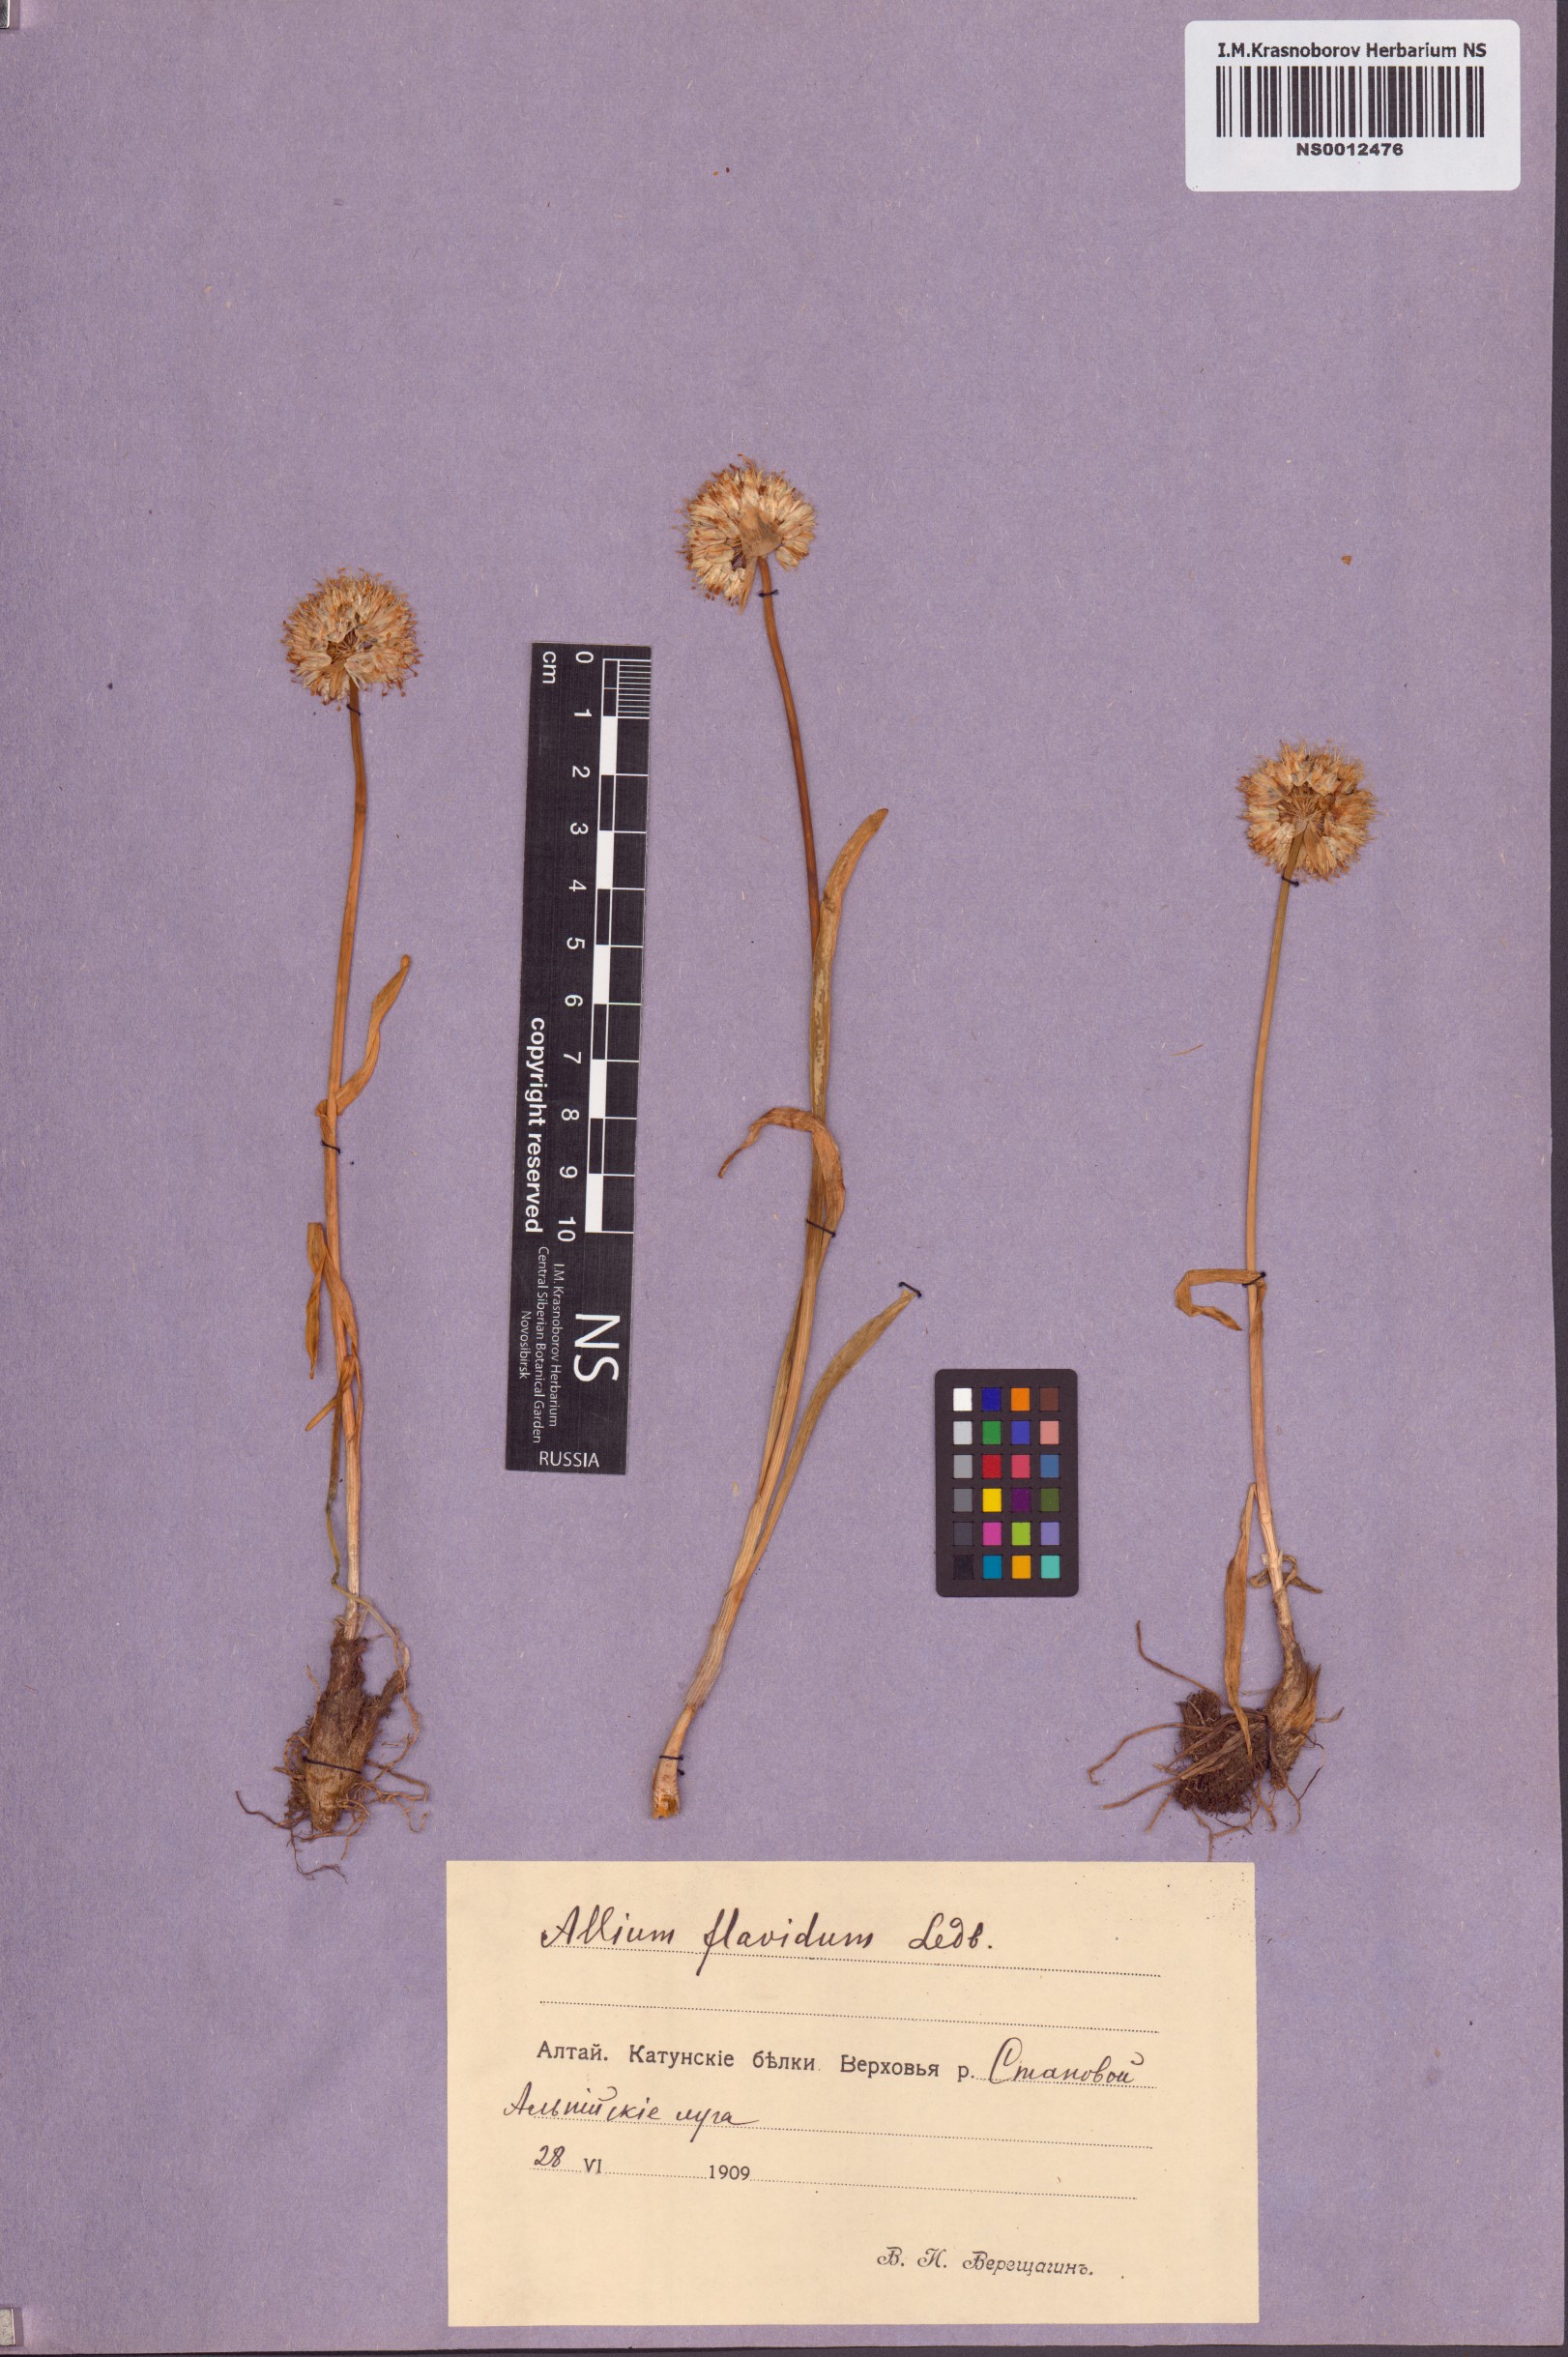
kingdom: Plantae
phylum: Tracheophyta
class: Liliopsida
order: Asparagales
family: Amaryllidaceae
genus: Allium
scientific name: Allium flavidum
